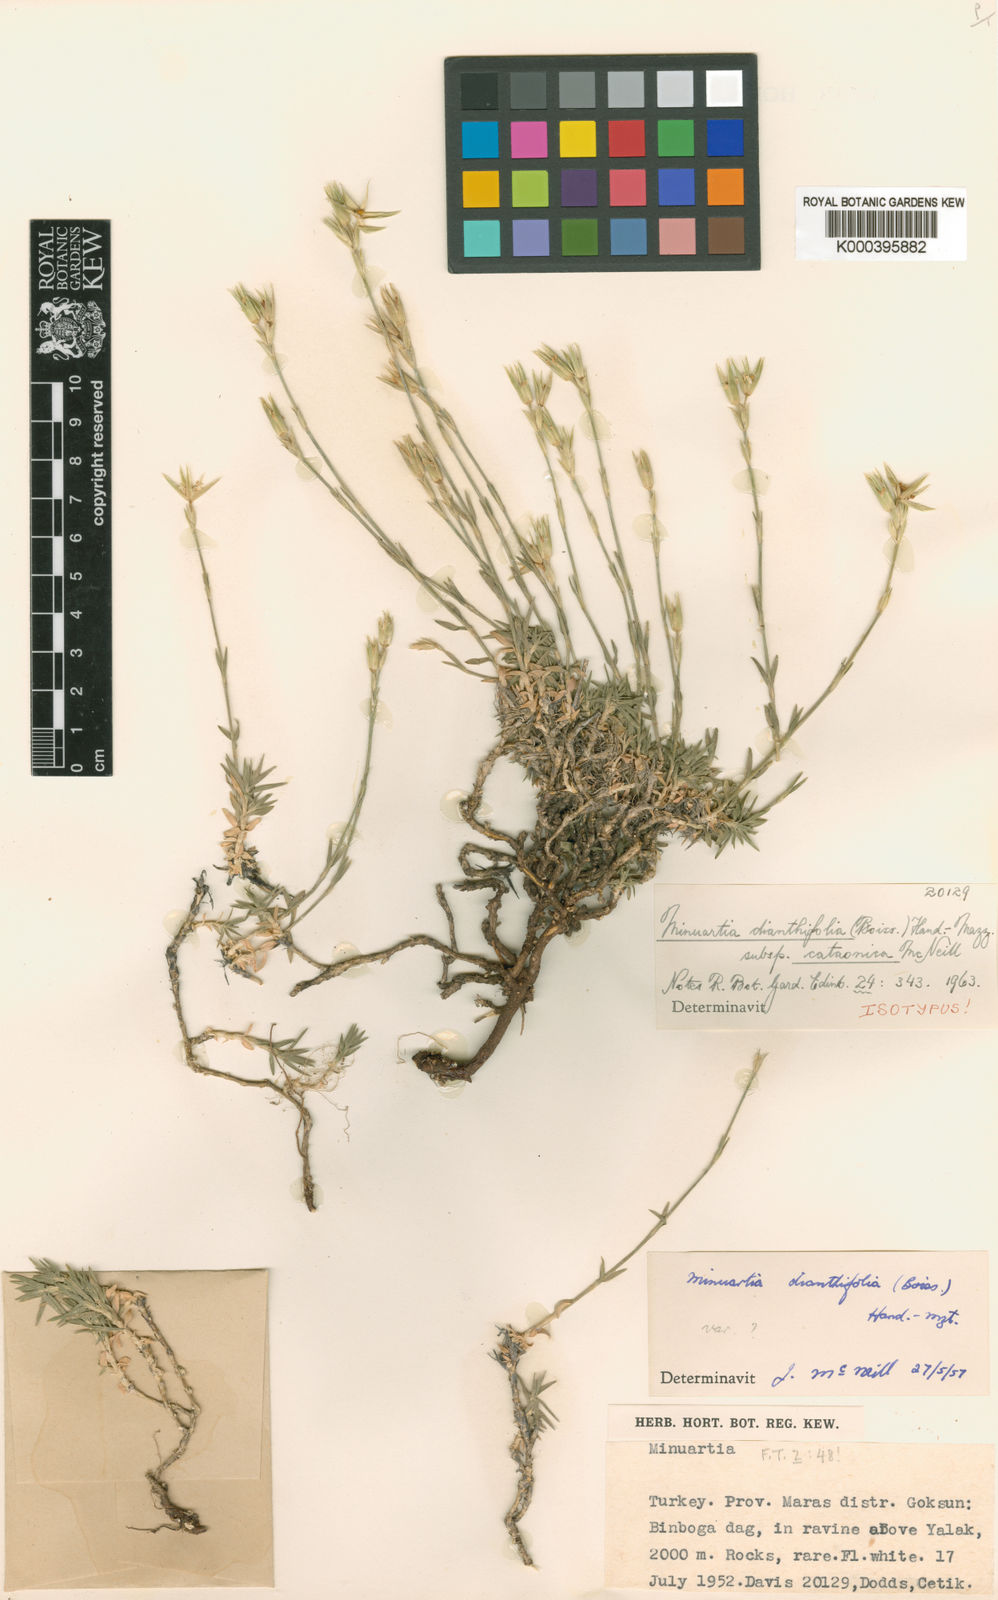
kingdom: Plantae
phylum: Tracheophyta
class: Magnoliopsida
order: Caryophyllales
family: Caryophyllaceae
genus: Minuartiella
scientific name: Minuartiella dianthifolia
